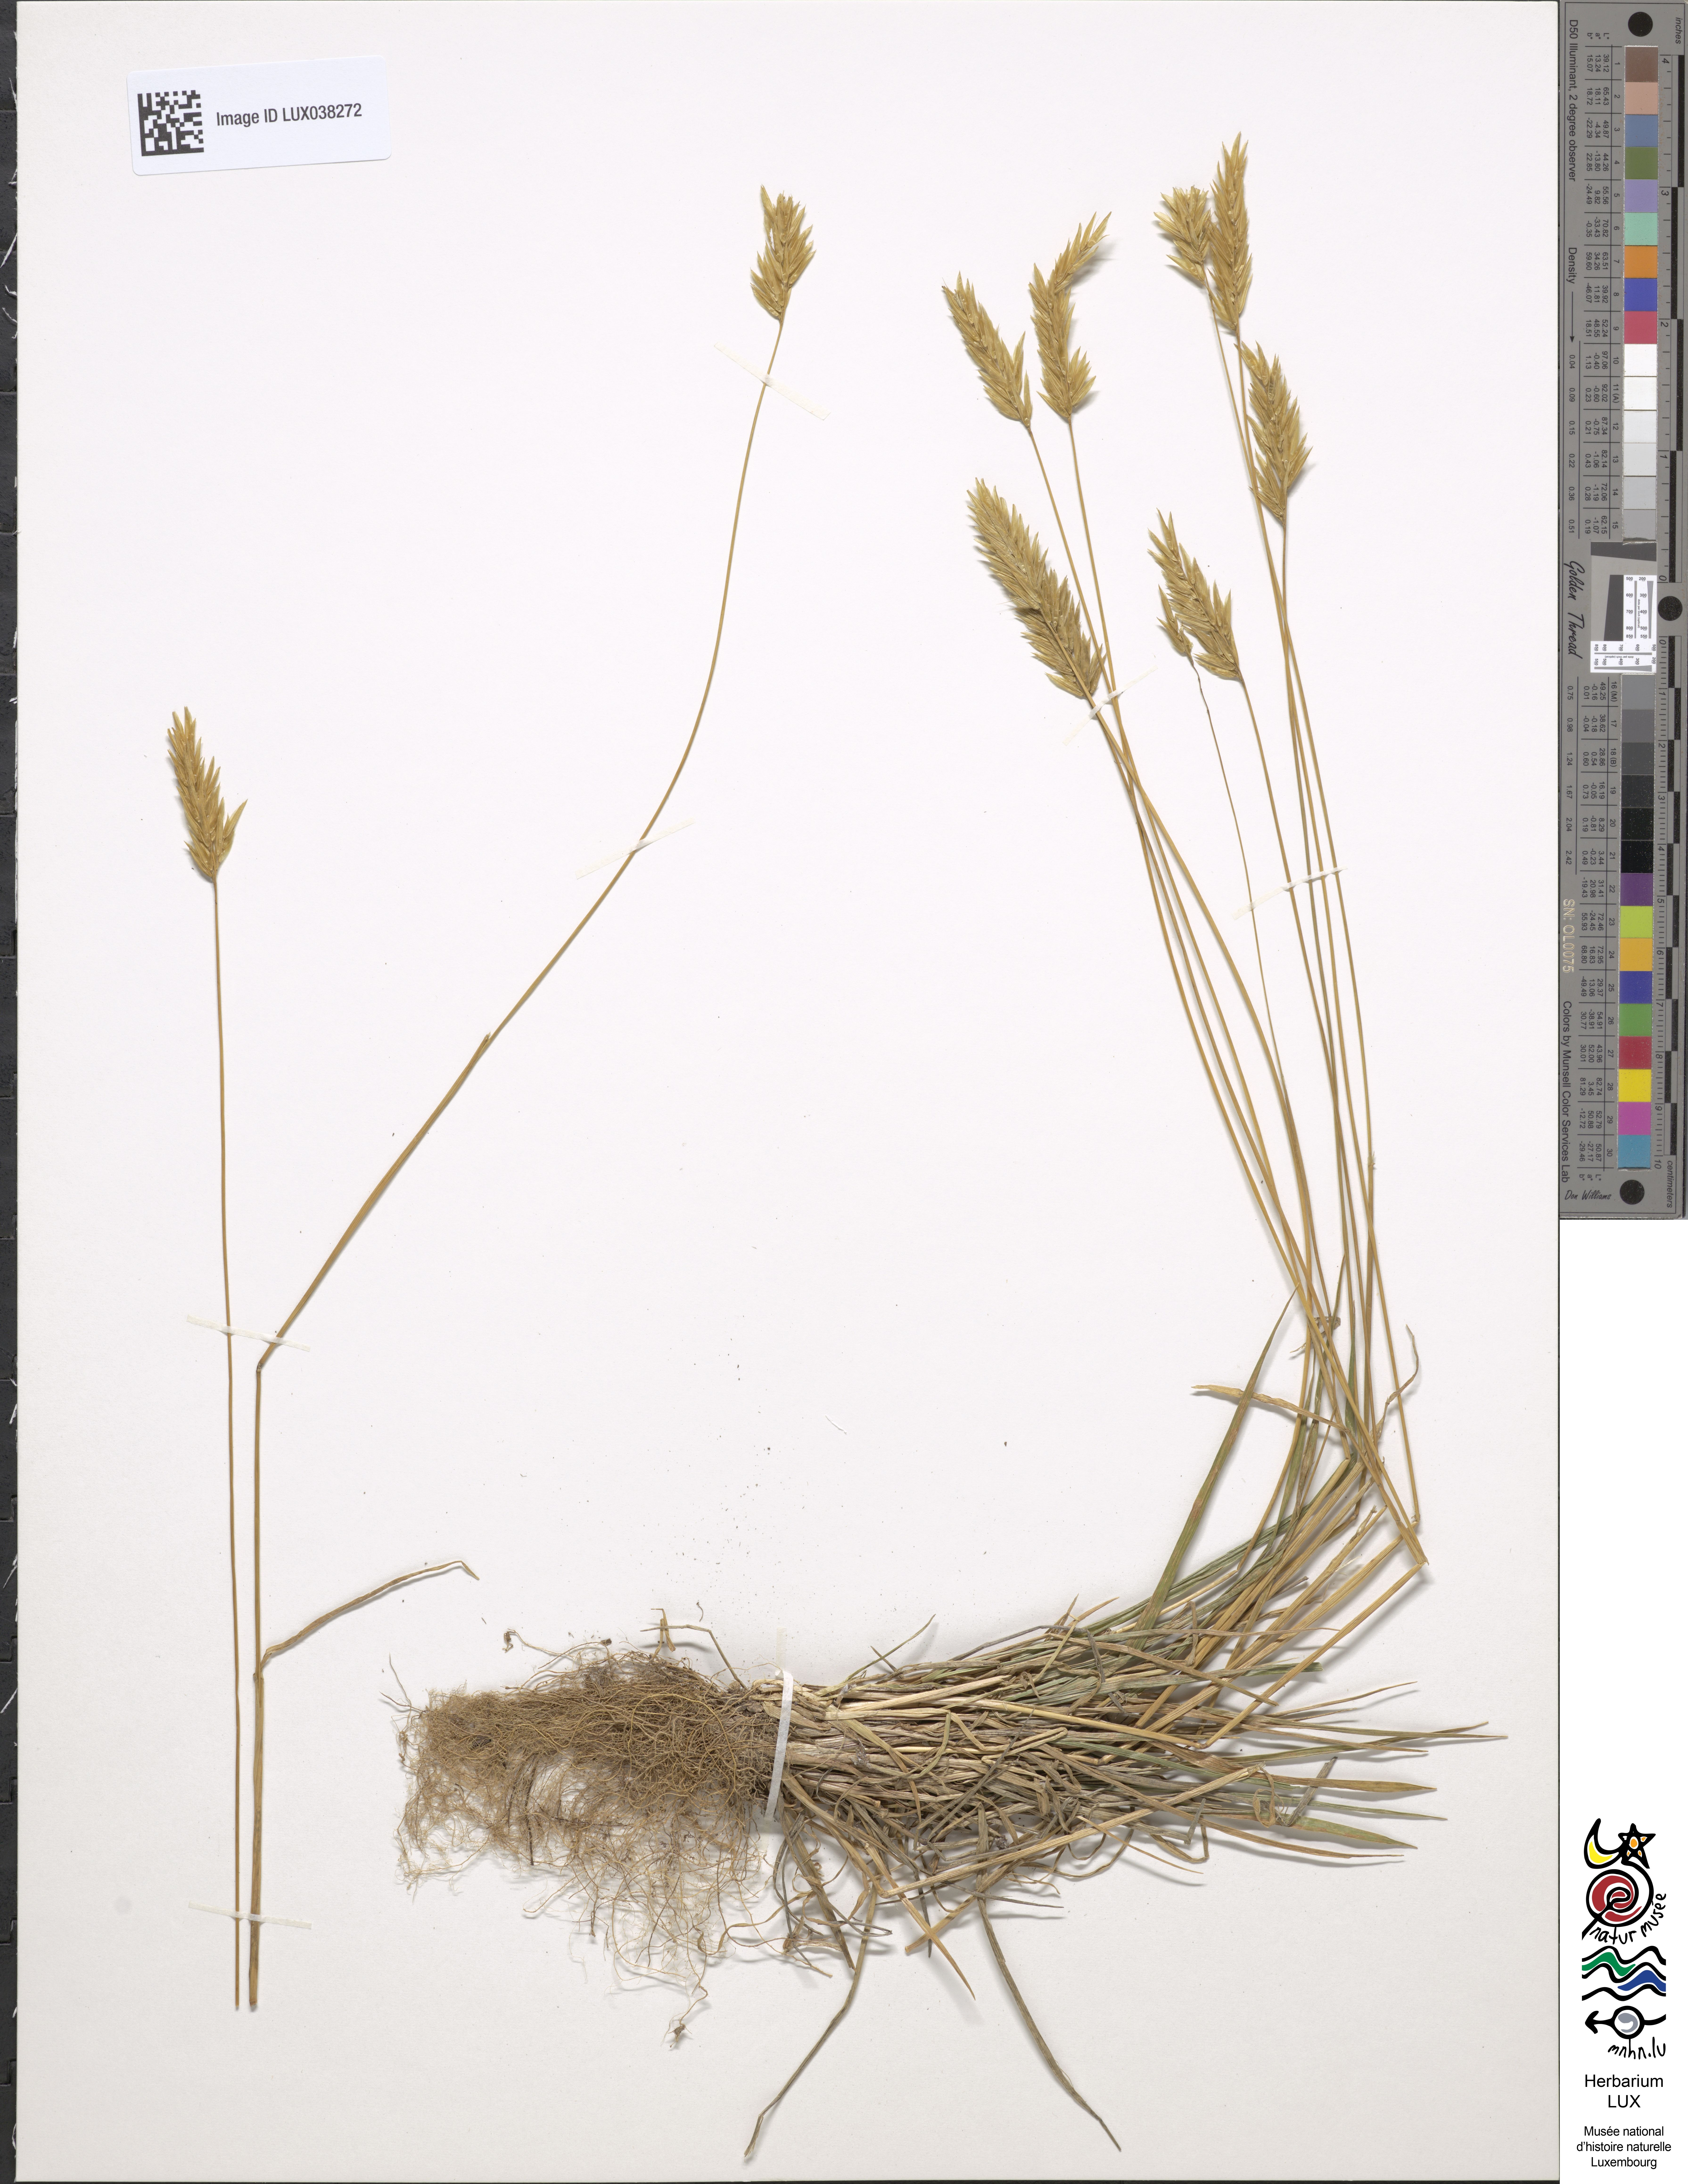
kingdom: Plantae
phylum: Tracheophyta
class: Liliopsida
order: Poales
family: Poaceae
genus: Anthoxanthum
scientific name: Anthoxanthum odoratum
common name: Sweet vernalgrass
